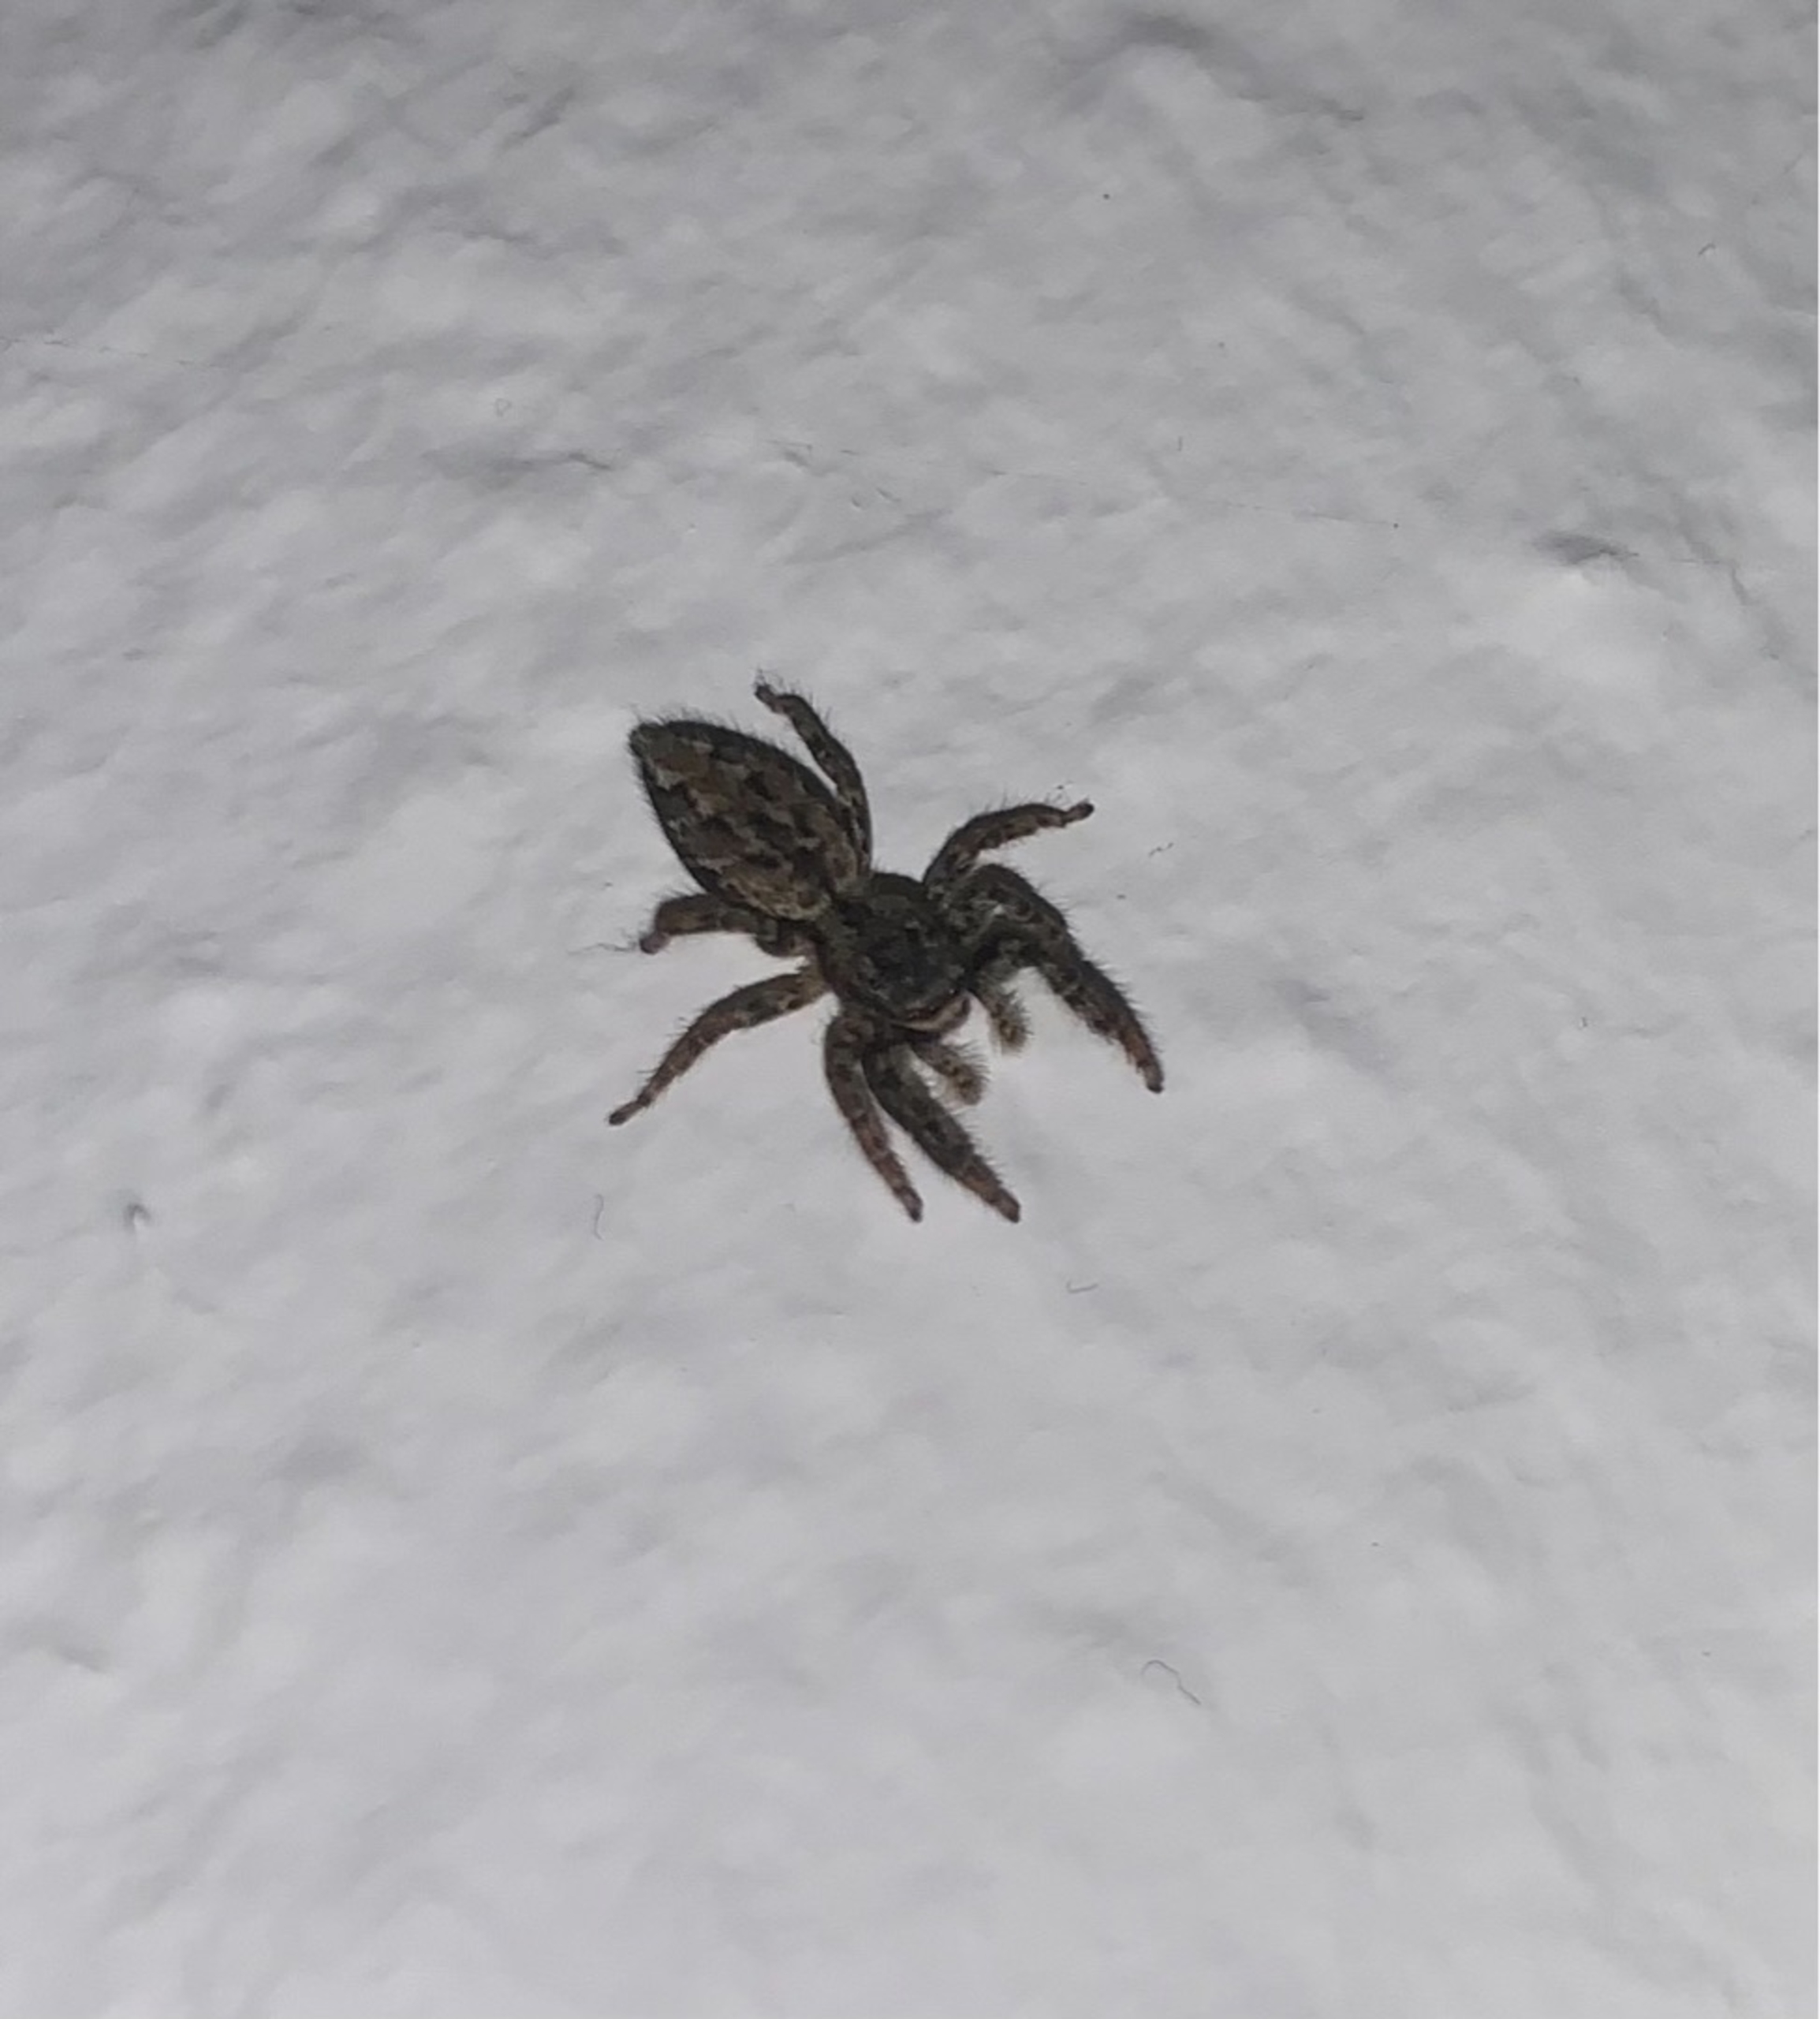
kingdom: Animalia
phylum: Arthropoda
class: Arachnida
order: Araneae
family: Salticidae
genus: Marpissa
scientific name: Marpissa muscosa
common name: Stor springedderkop
